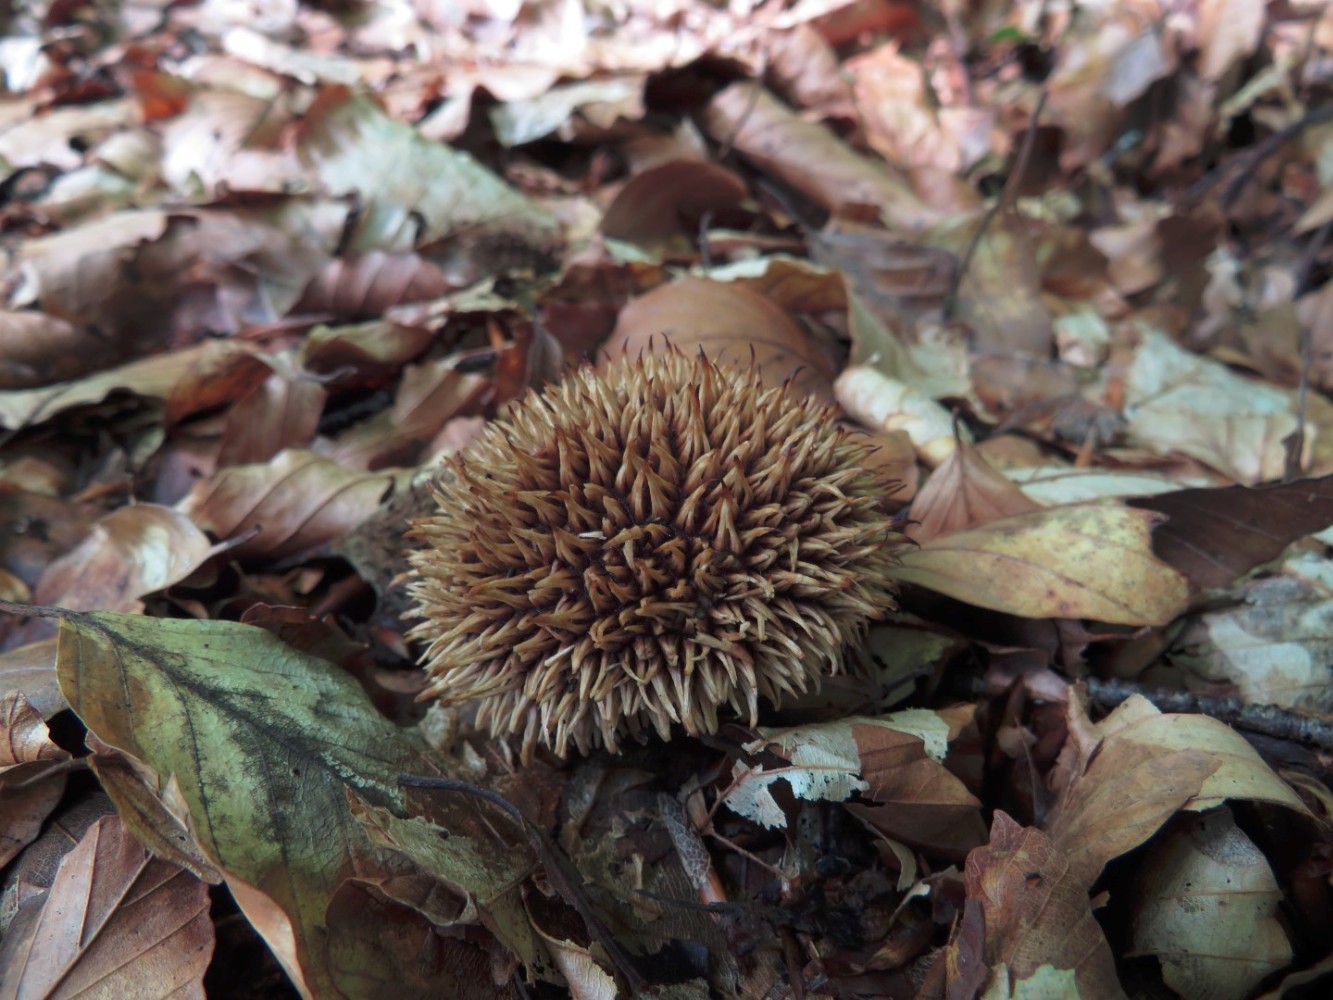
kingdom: Fungi
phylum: Basidiomycota
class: Agaricomycetes
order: Agaricales
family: Lycoperdaceae
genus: Lycoperdon
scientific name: Lycoperdon echinatum
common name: pindsvine-støvbold
